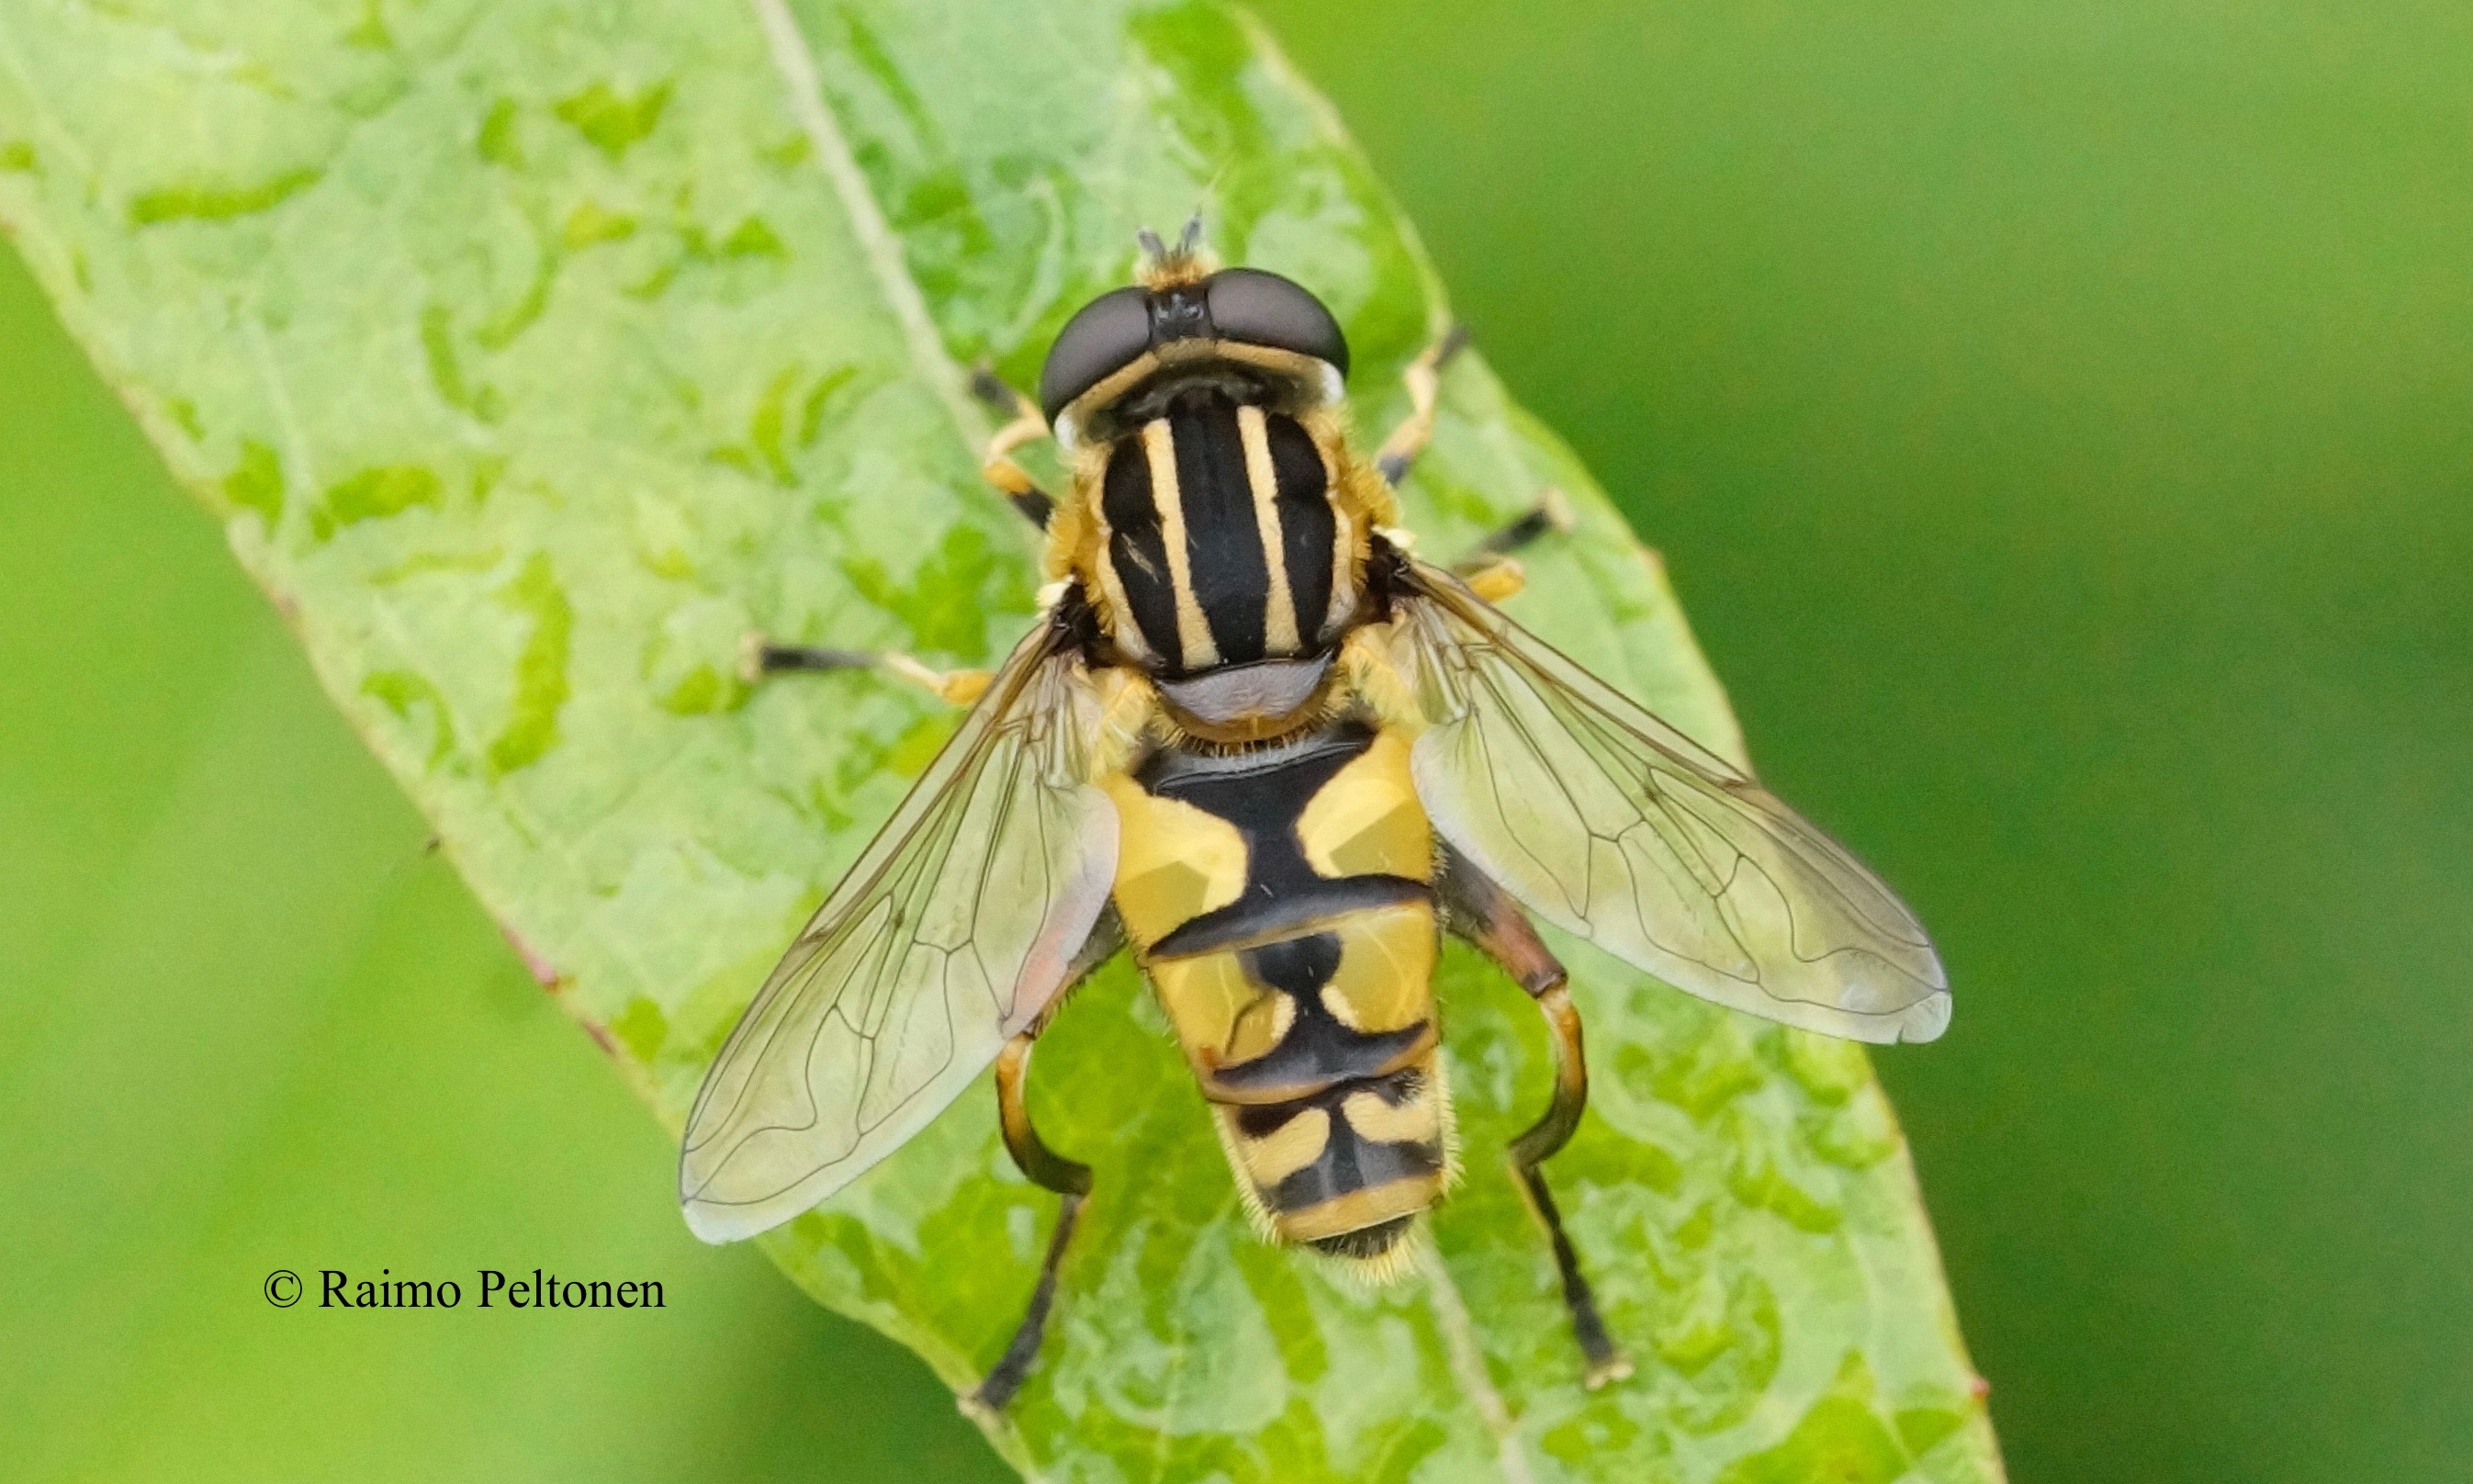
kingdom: Animalia
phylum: Arthropoda
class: Insecta
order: Diptera
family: Syrphidae
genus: Helophilus
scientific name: Helophilus pendulus
